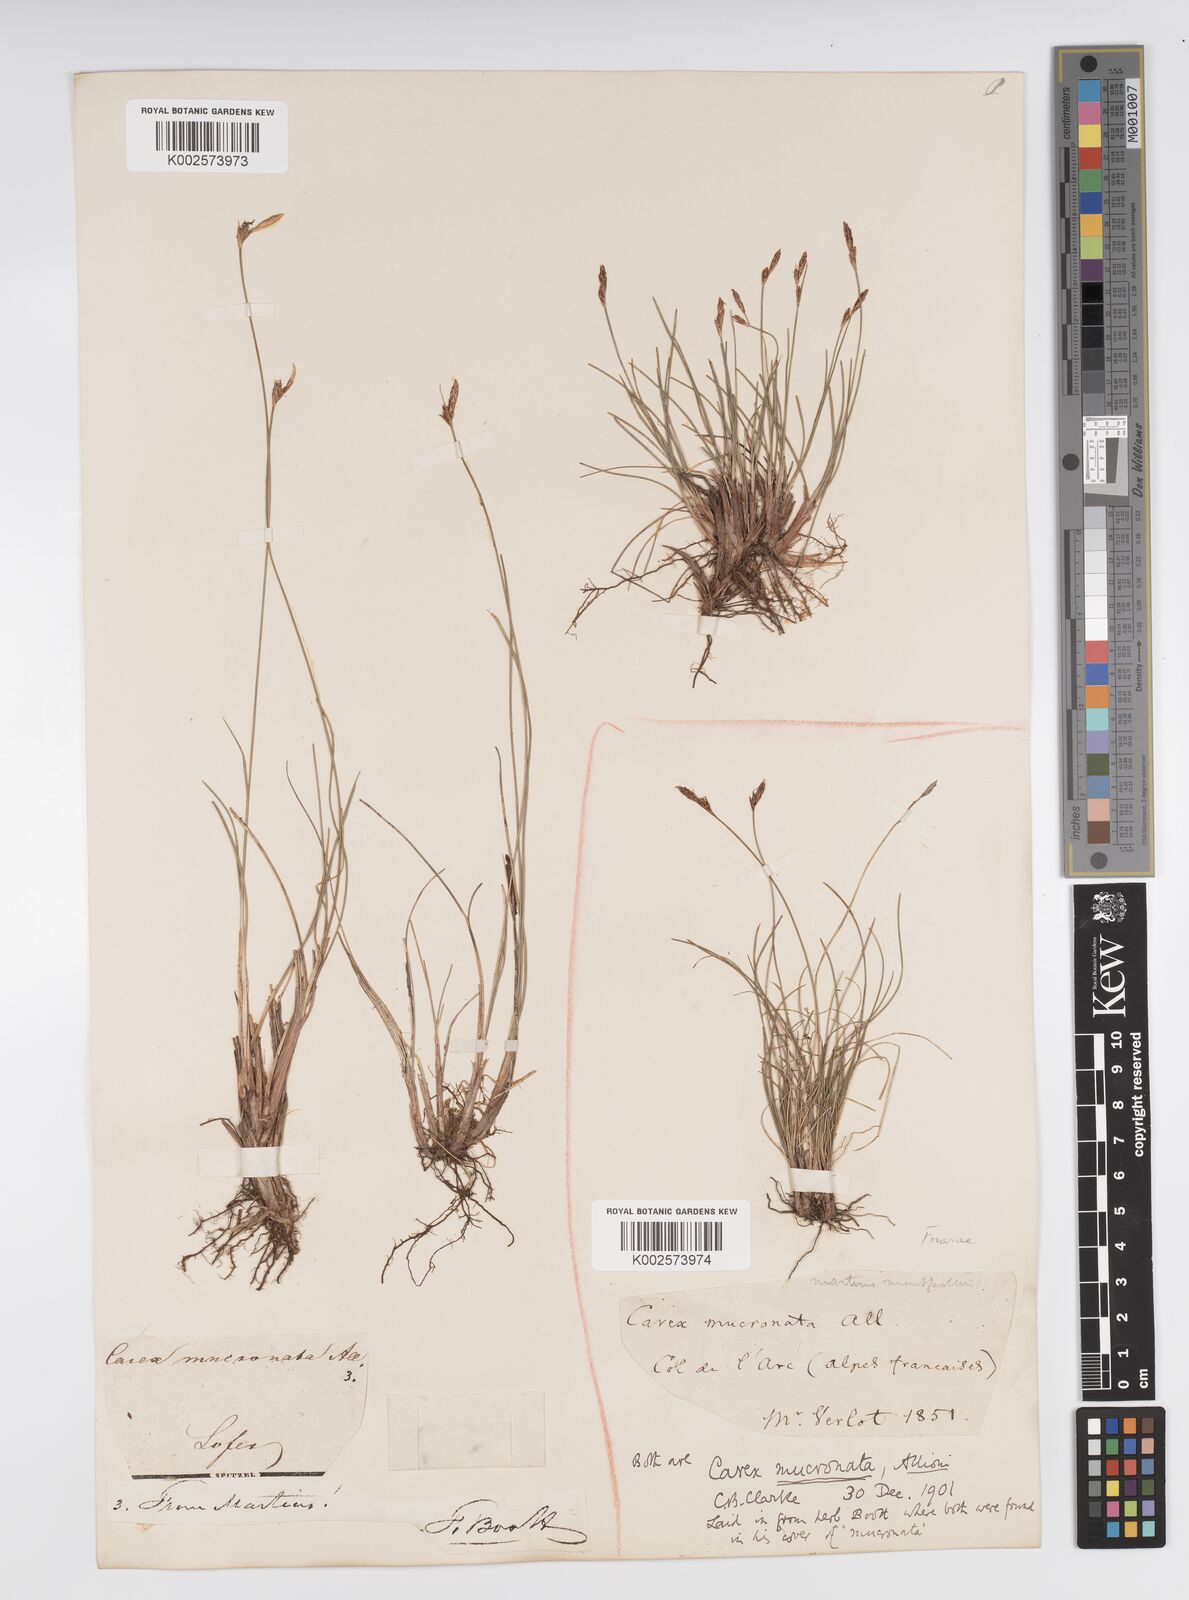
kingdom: Plantae
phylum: Tracheophyta
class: Liliopsida
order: Poales
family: Cyperaceae
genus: Carex
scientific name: Carex mucronata
